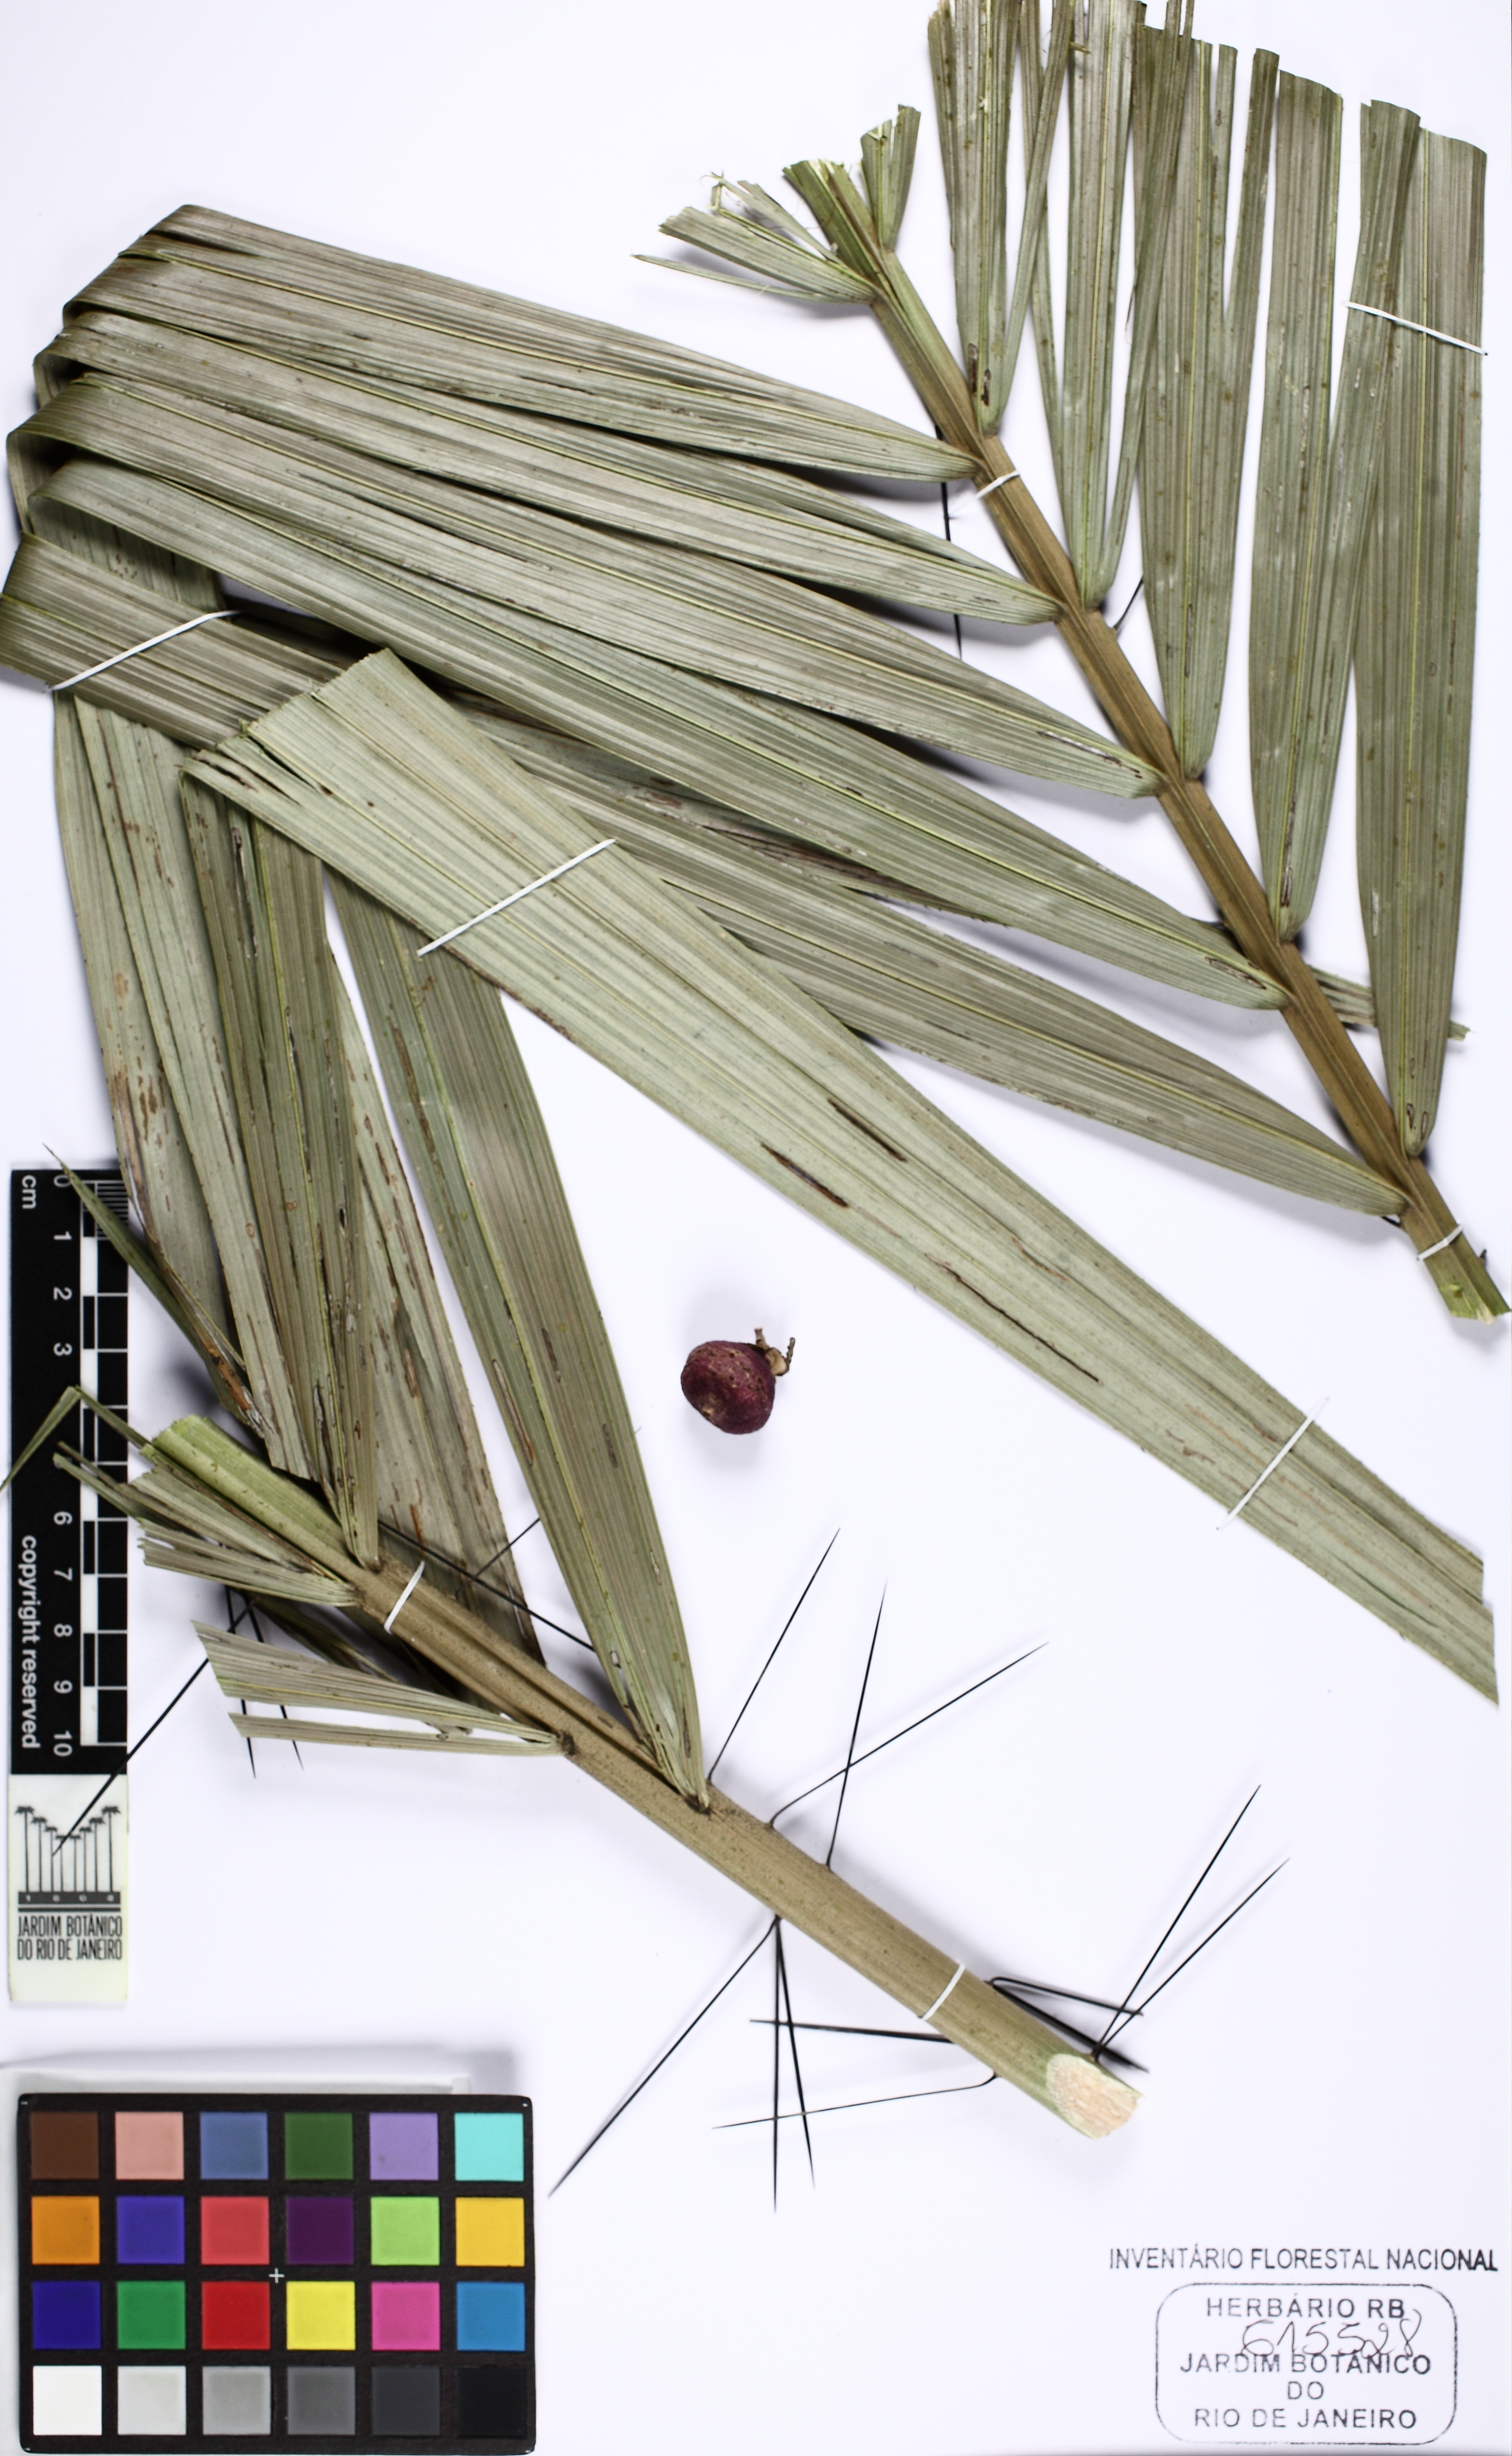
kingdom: Plantae
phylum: Tracheophyta
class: Liliopsida
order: Arecales
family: Arecaceae
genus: Bactris
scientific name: Bactris vulgaris
